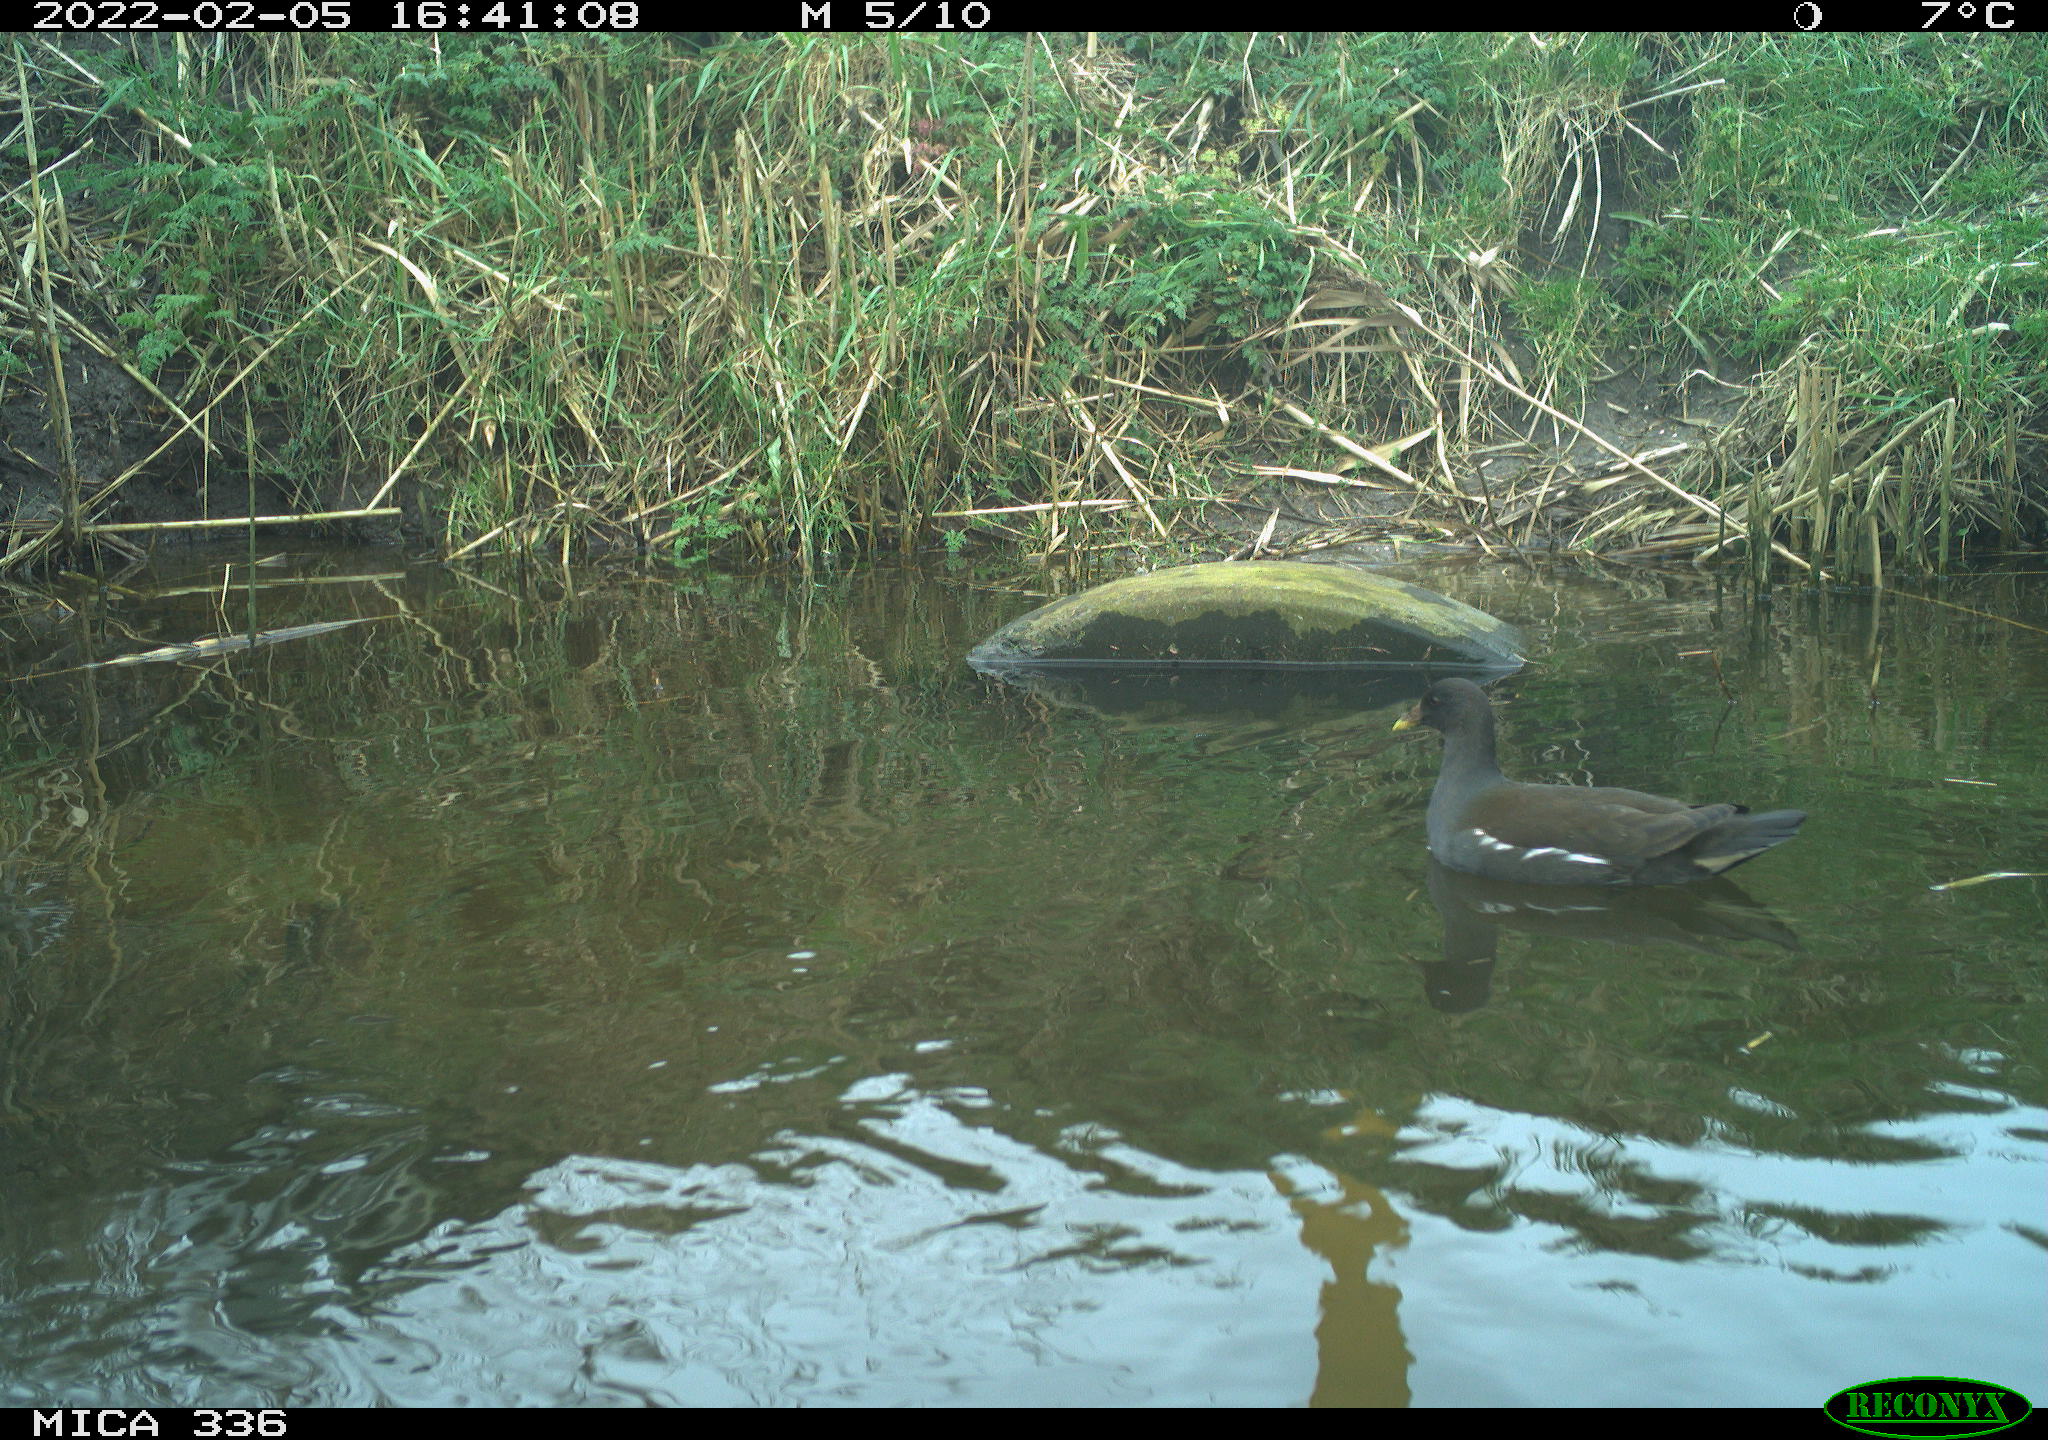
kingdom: Animalia
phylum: Chordata
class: Aves
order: Gruiformes
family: Rallidae
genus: Gallinula
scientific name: Gallinula chloropus
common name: Common moorhen
